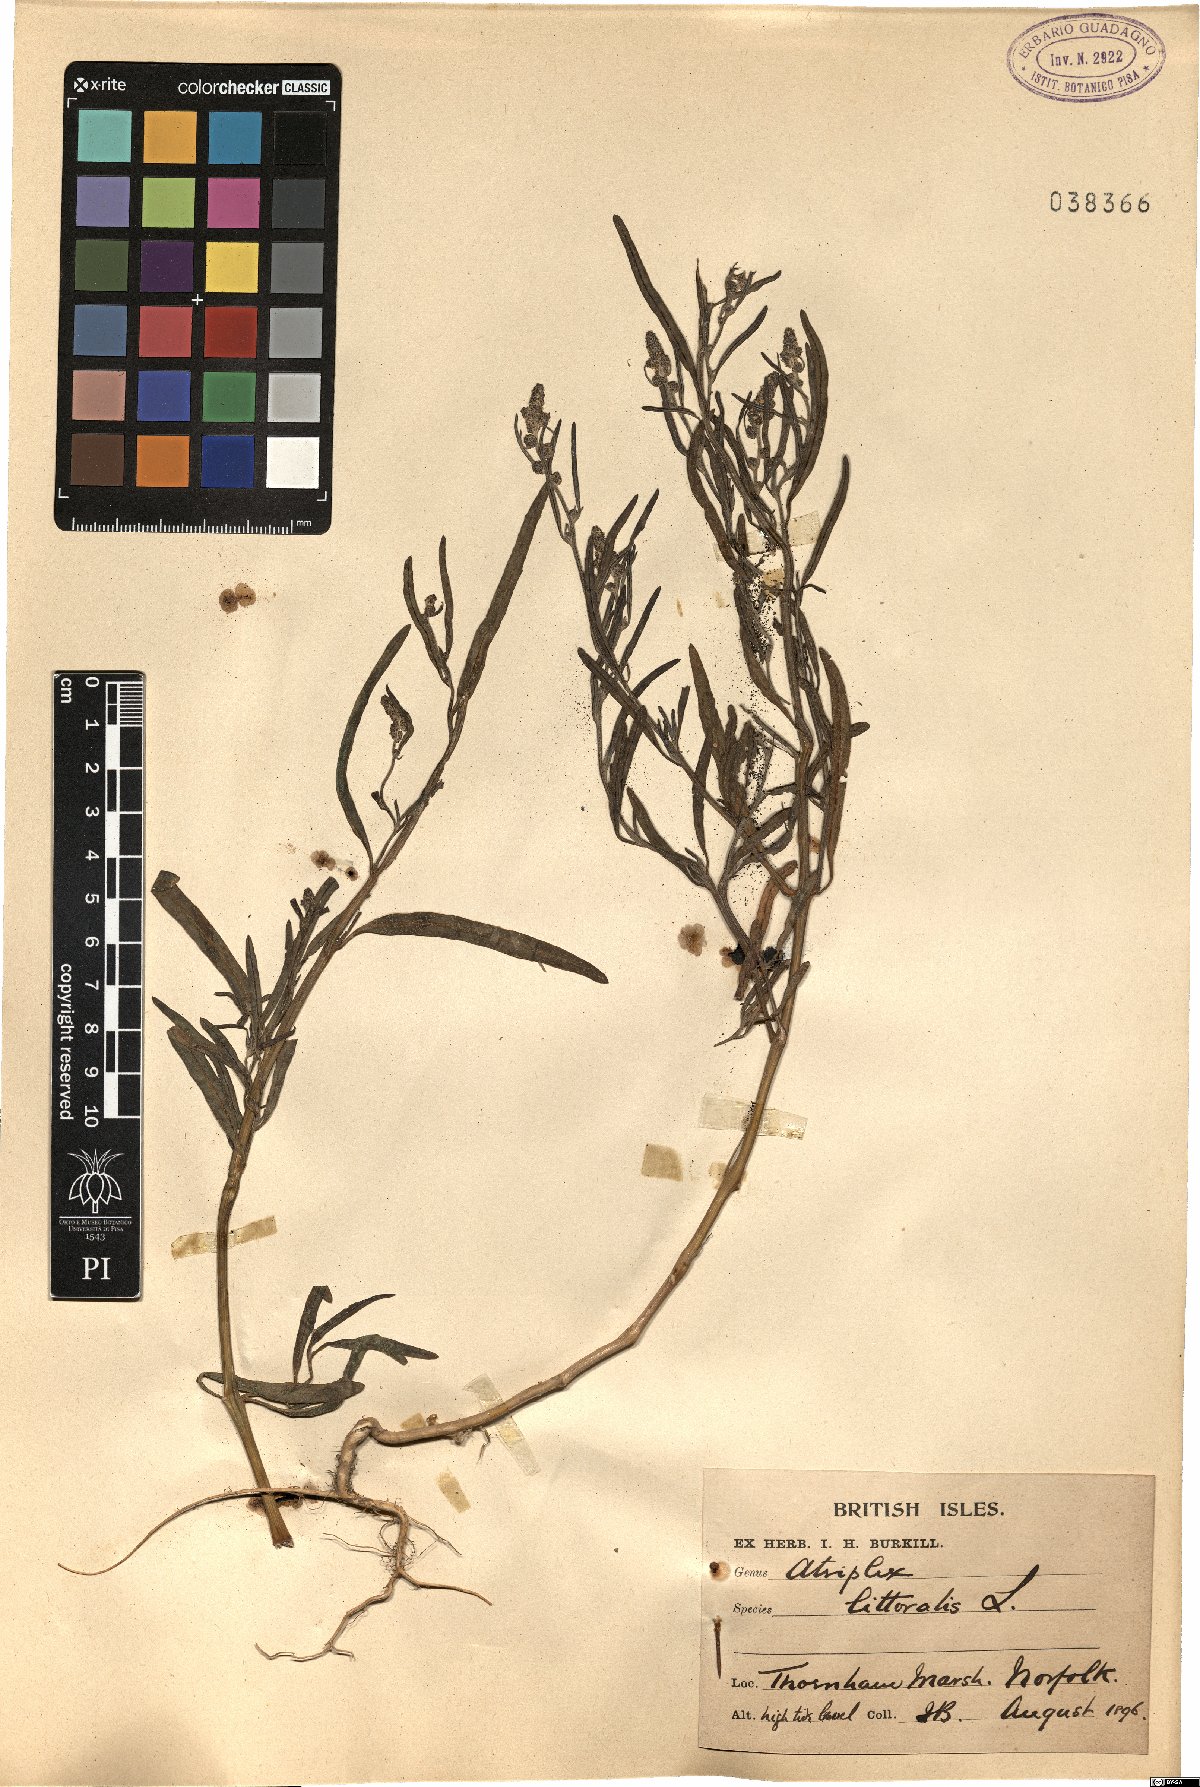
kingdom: Plantae
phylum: Tracheophyta
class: Magnoliopsida
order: Caryophyllales
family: Amaranthaceae
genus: Atriplex
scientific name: Atriplex littoralis
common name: Grass-leaved orache
